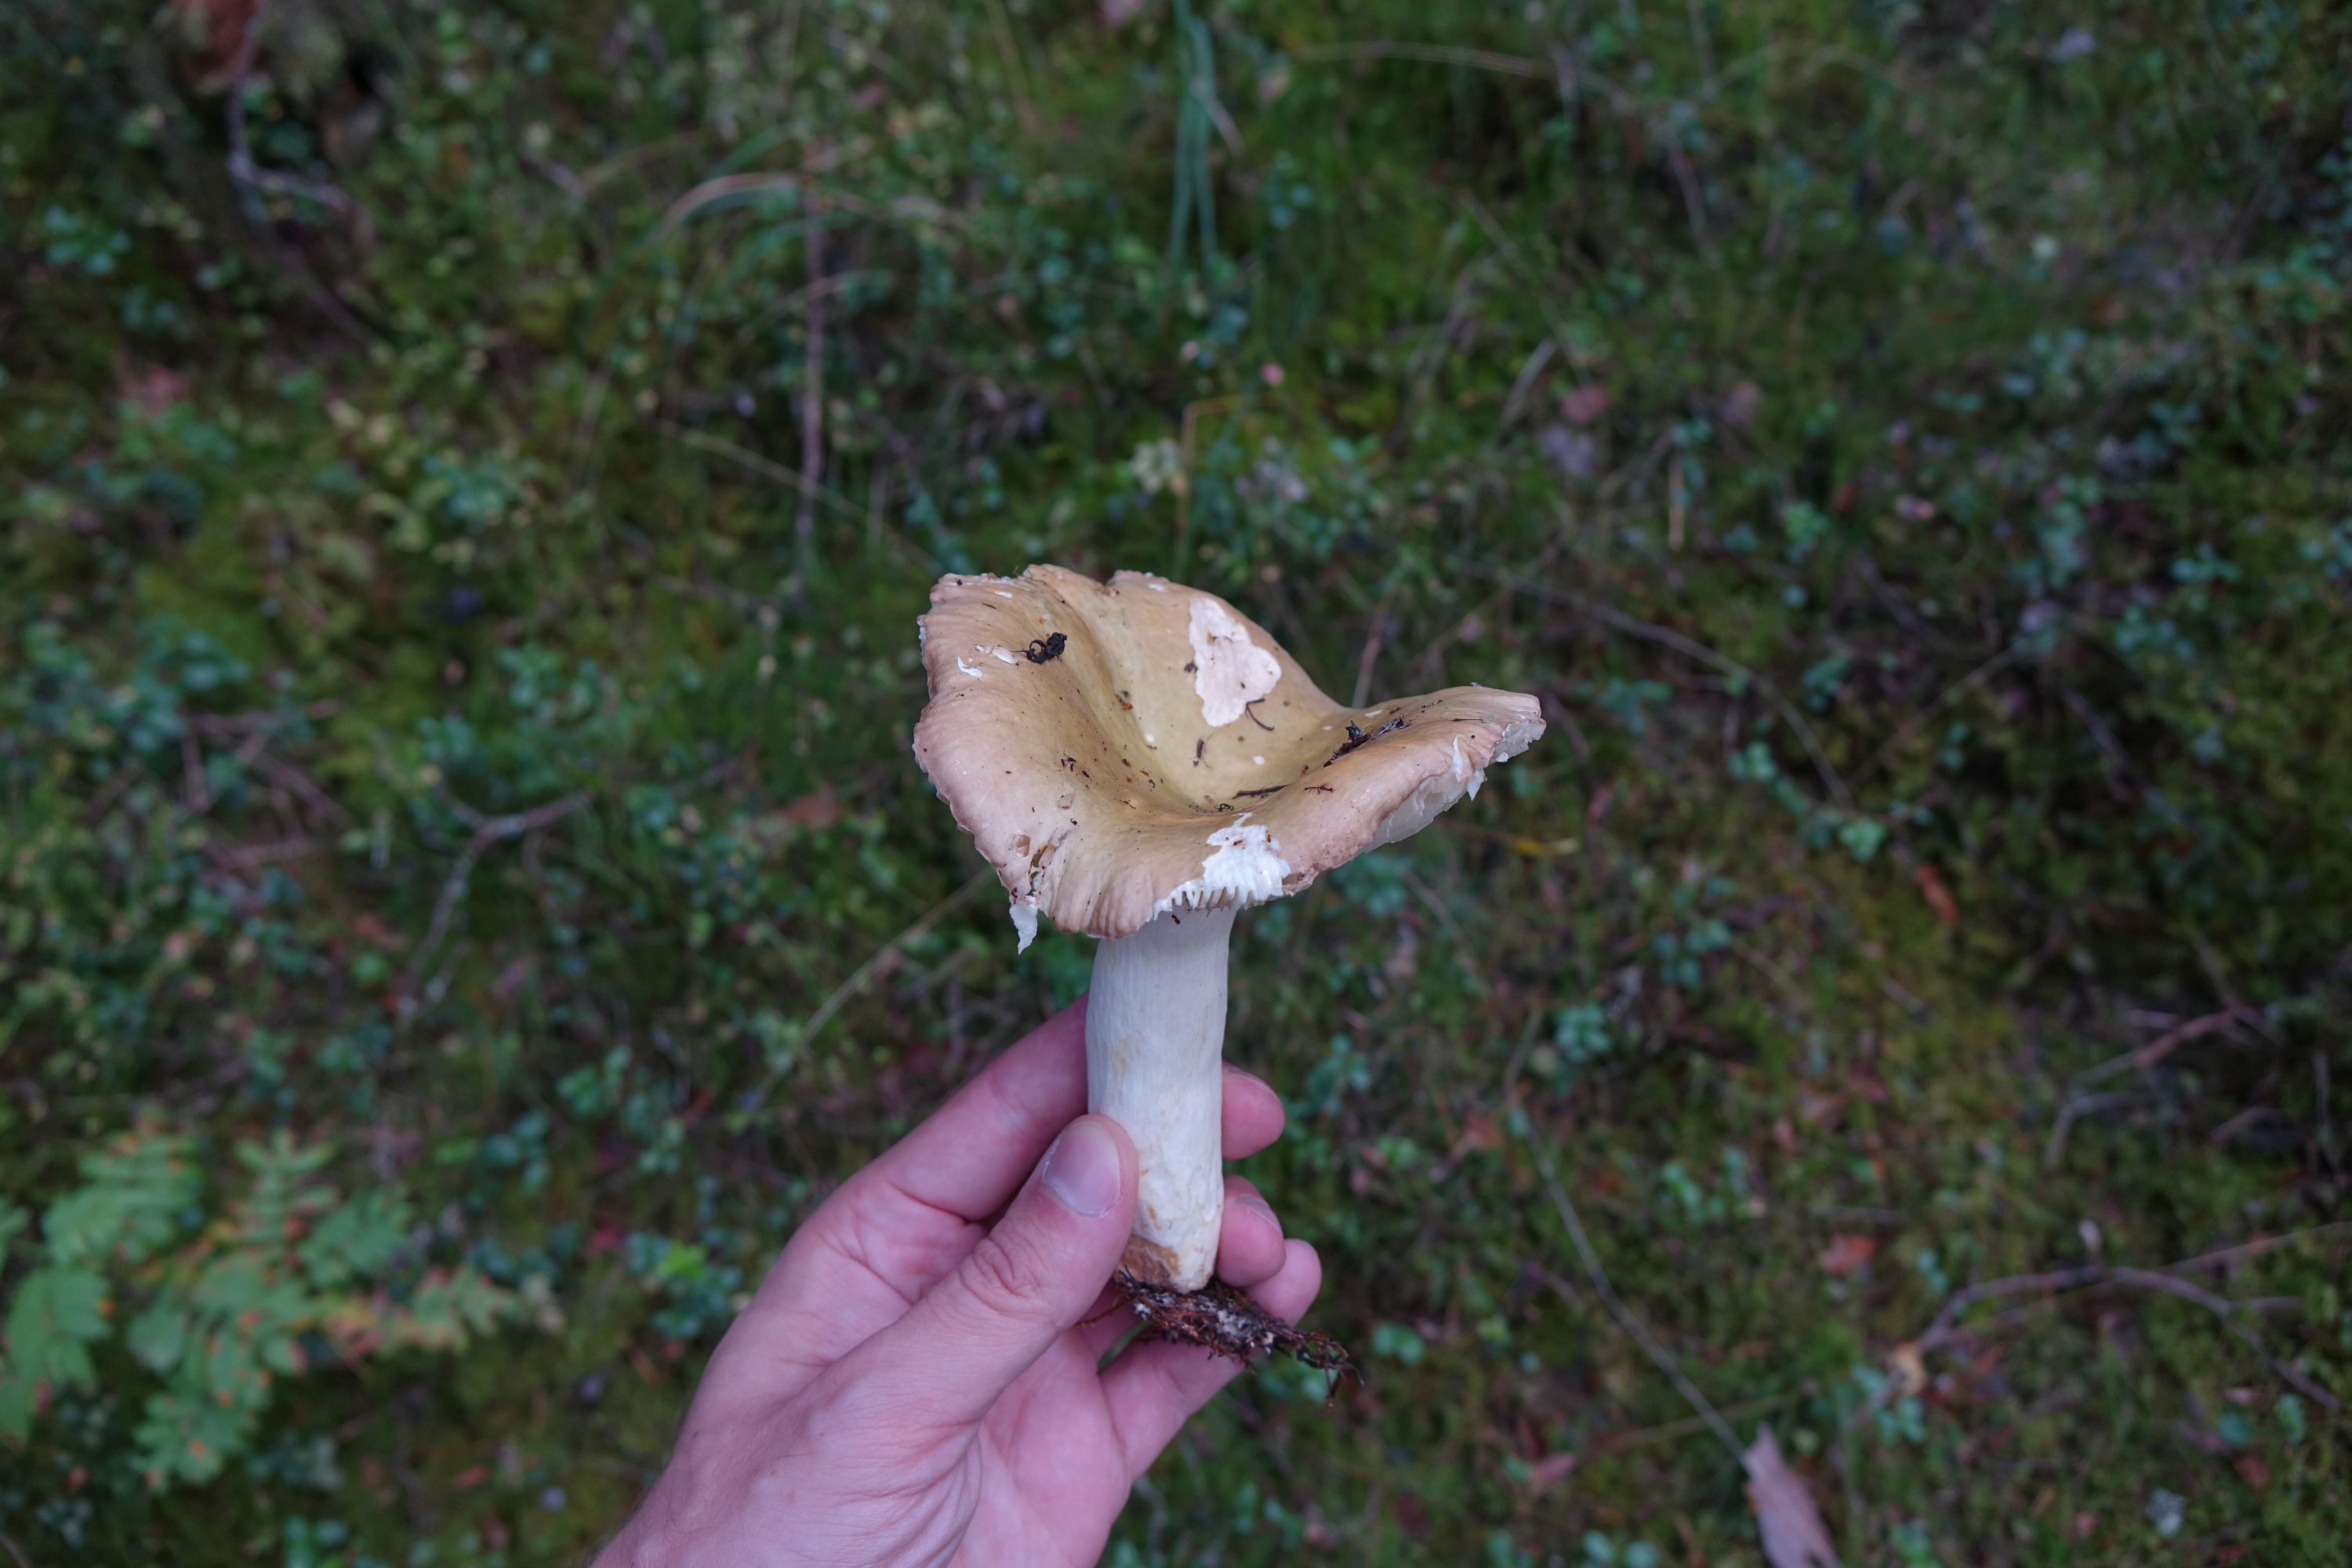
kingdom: Fungi
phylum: Basidiomycota
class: Agaricomycetes
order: Russulales
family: Russulaceae
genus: Russula
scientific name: Russula clavipes
